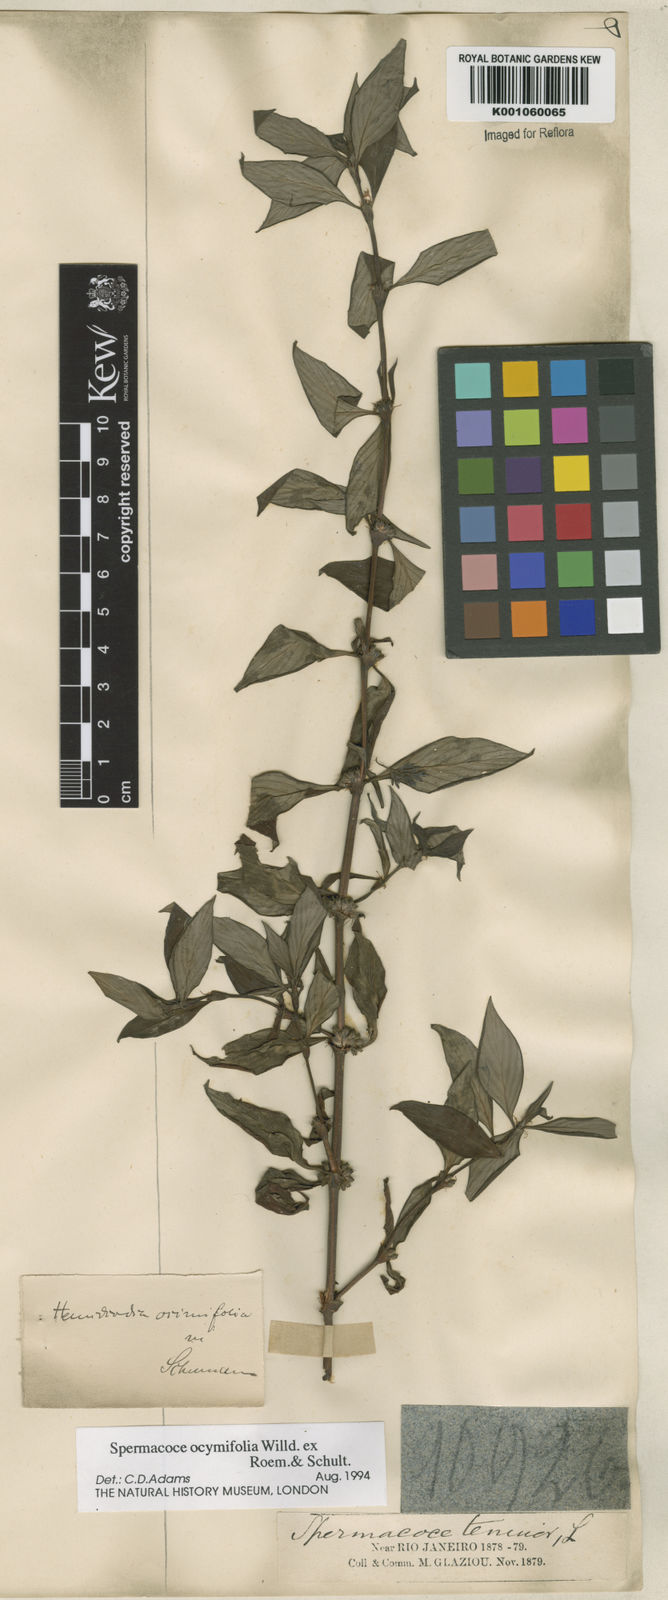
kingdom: Plantae
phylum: Tracheophyta
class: Magnoliopsida
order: Gentianales
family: Rubiaceae
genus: Spermacoce
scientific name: Spermacoce
